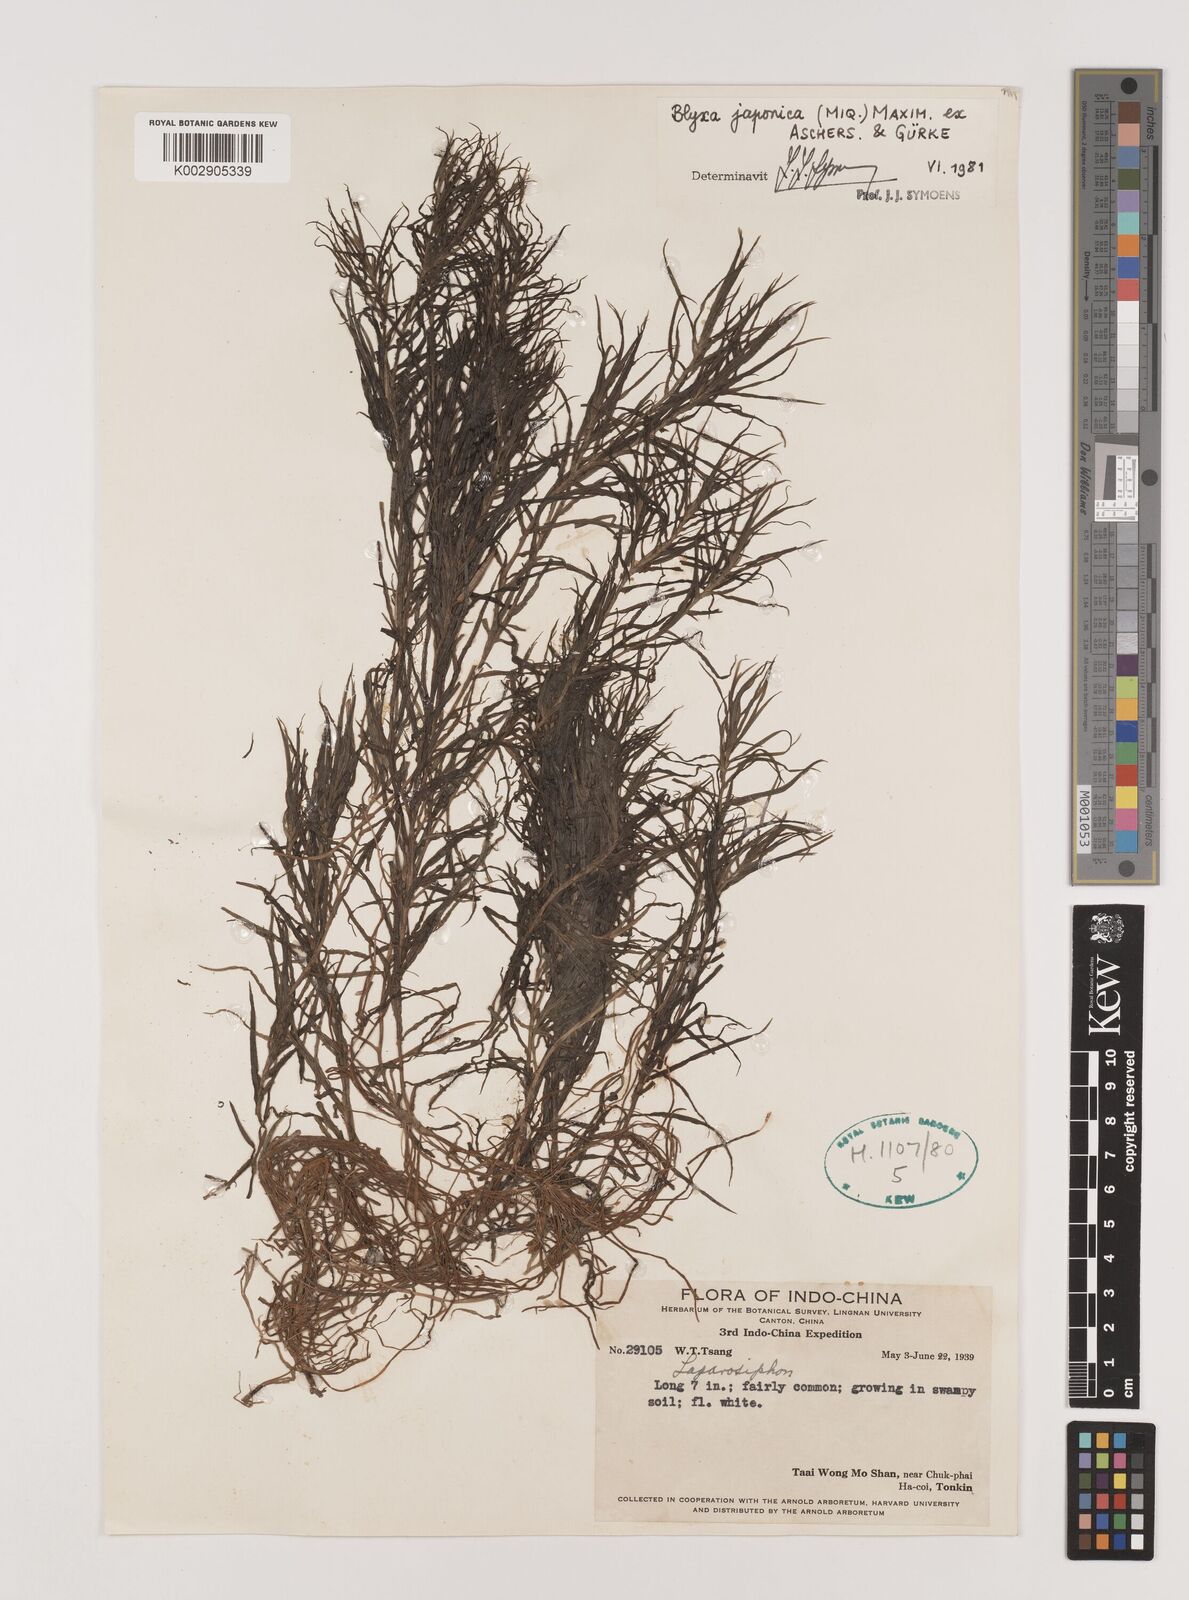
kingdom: Plantae
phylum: Tracheophyta
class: Liliopsida
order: Alismatales
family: Hydrocharitaceae
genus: Blyxa
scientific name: Blyxa japonica
